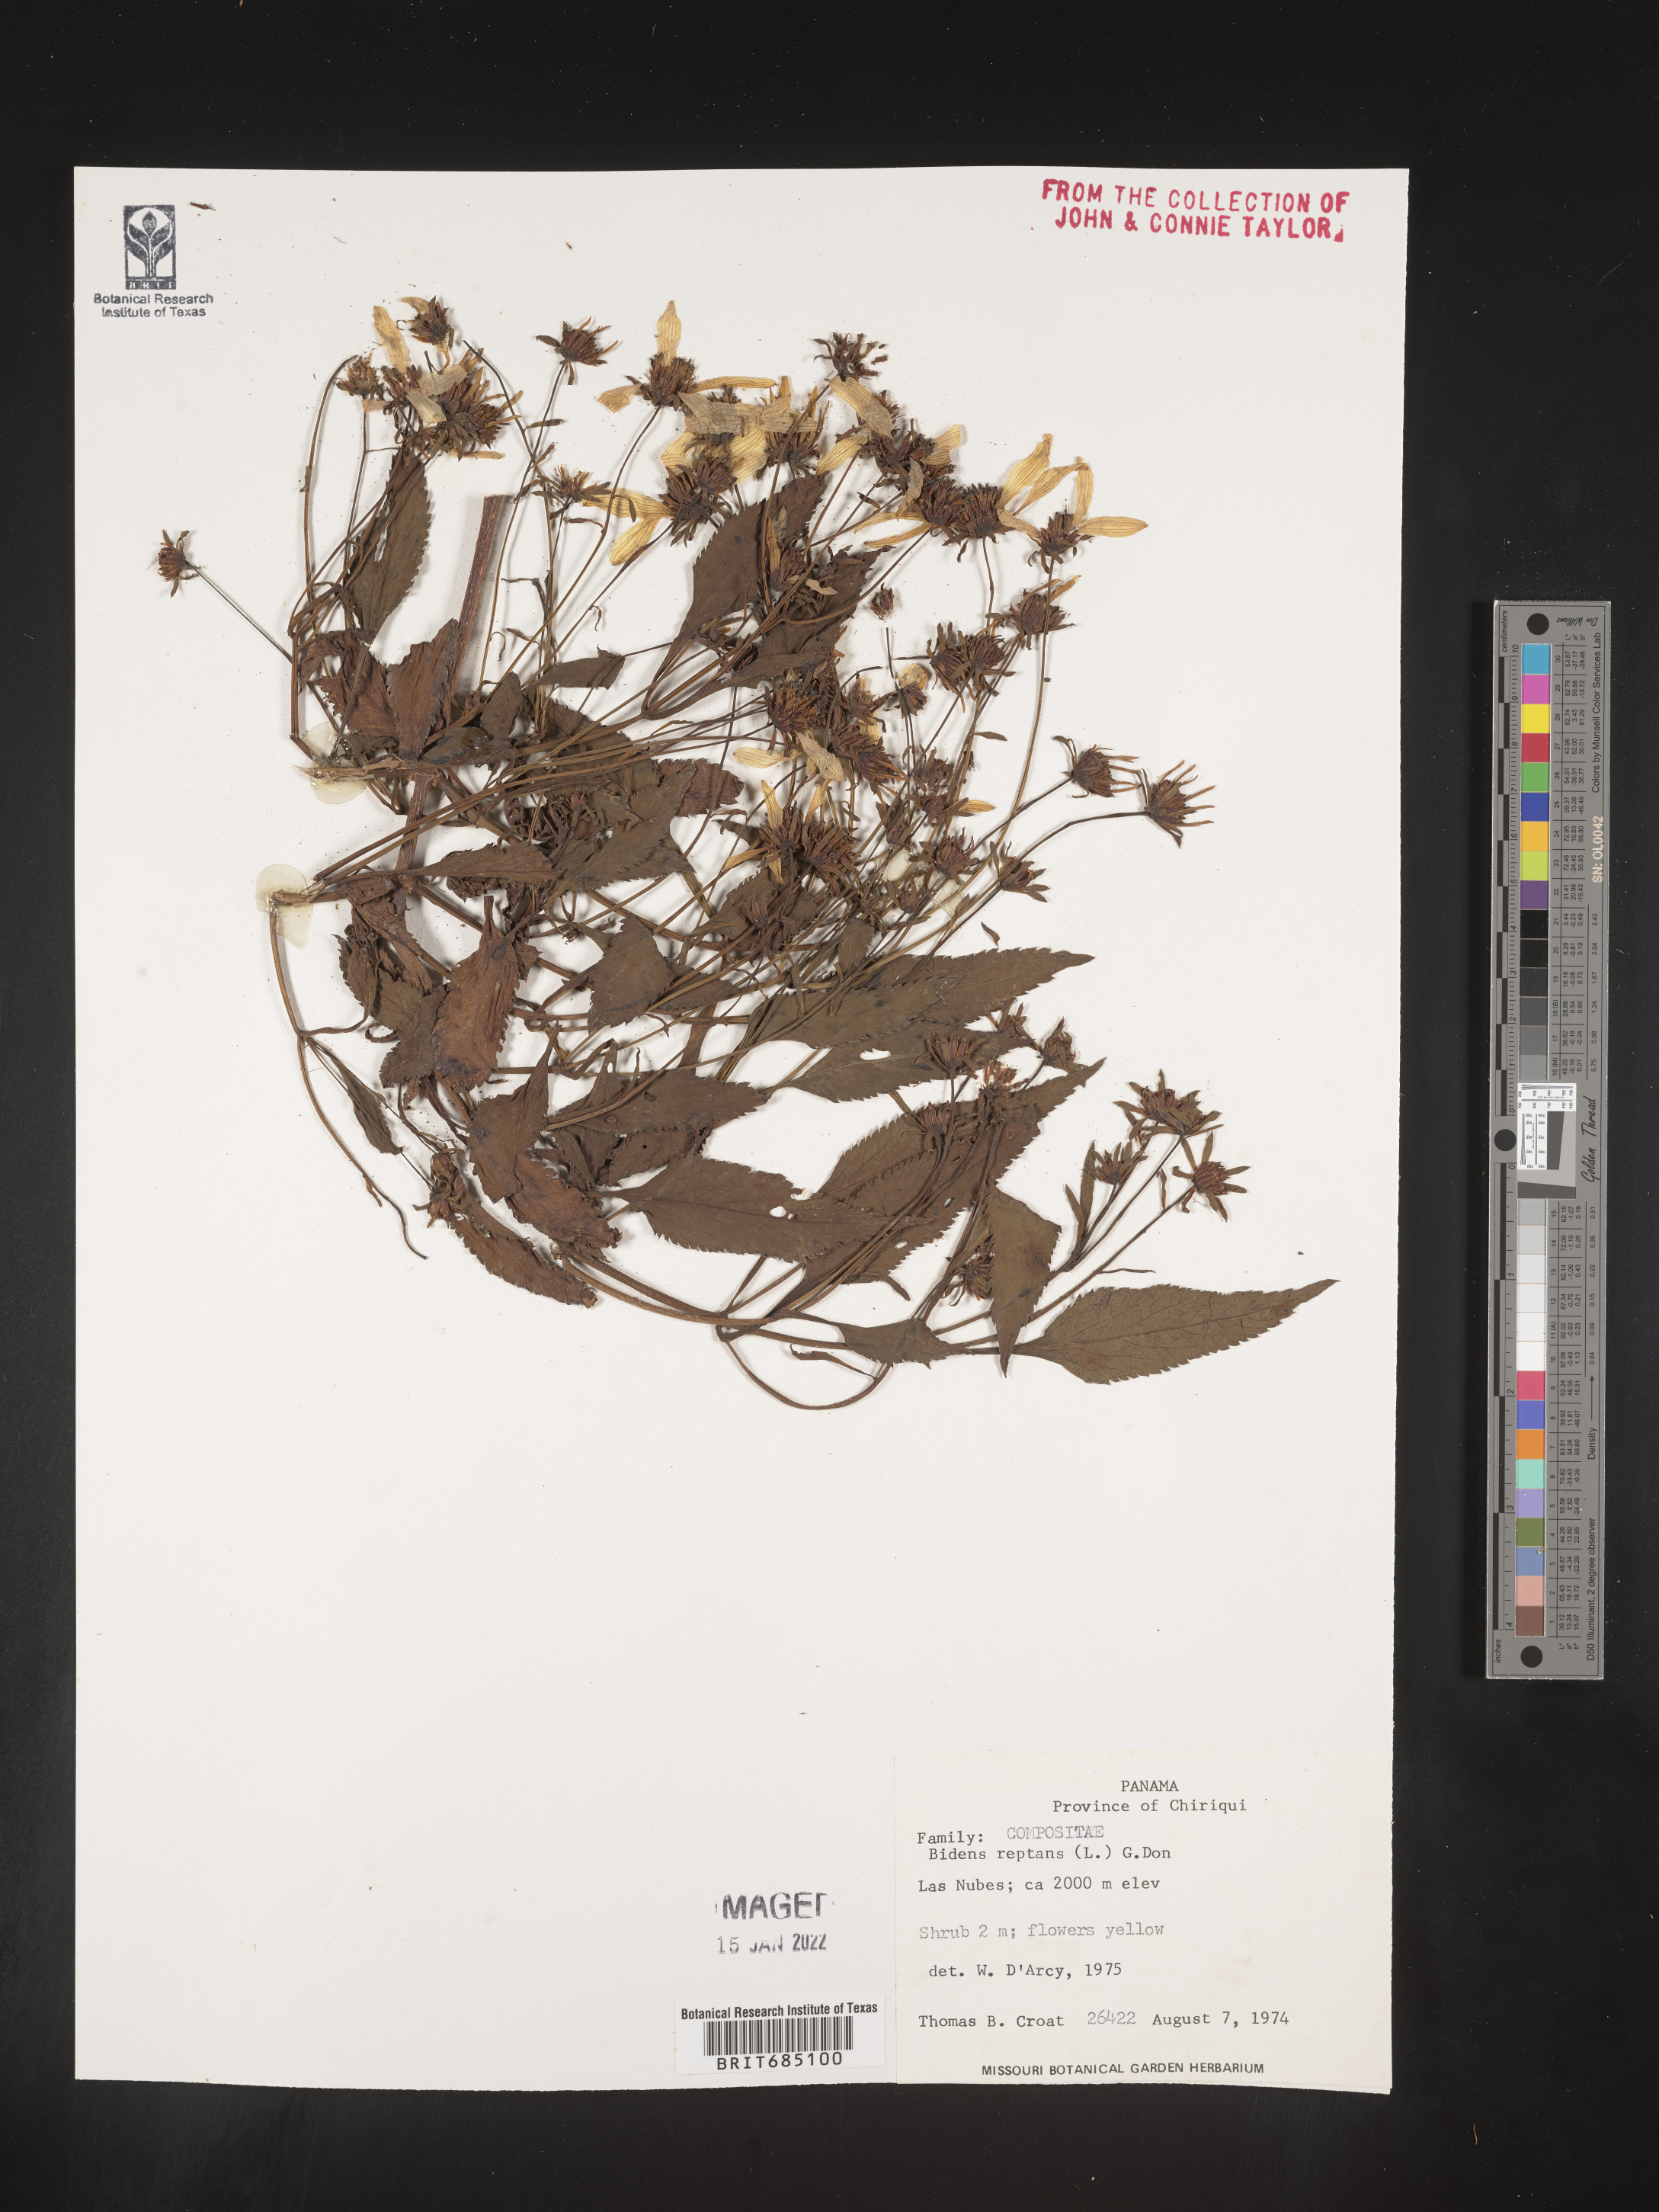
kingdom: Plantae
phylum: Tracheophyta
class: Magnoliopsida
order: Asterales
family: Asteraceae
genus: Bidens
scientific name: Bidens
